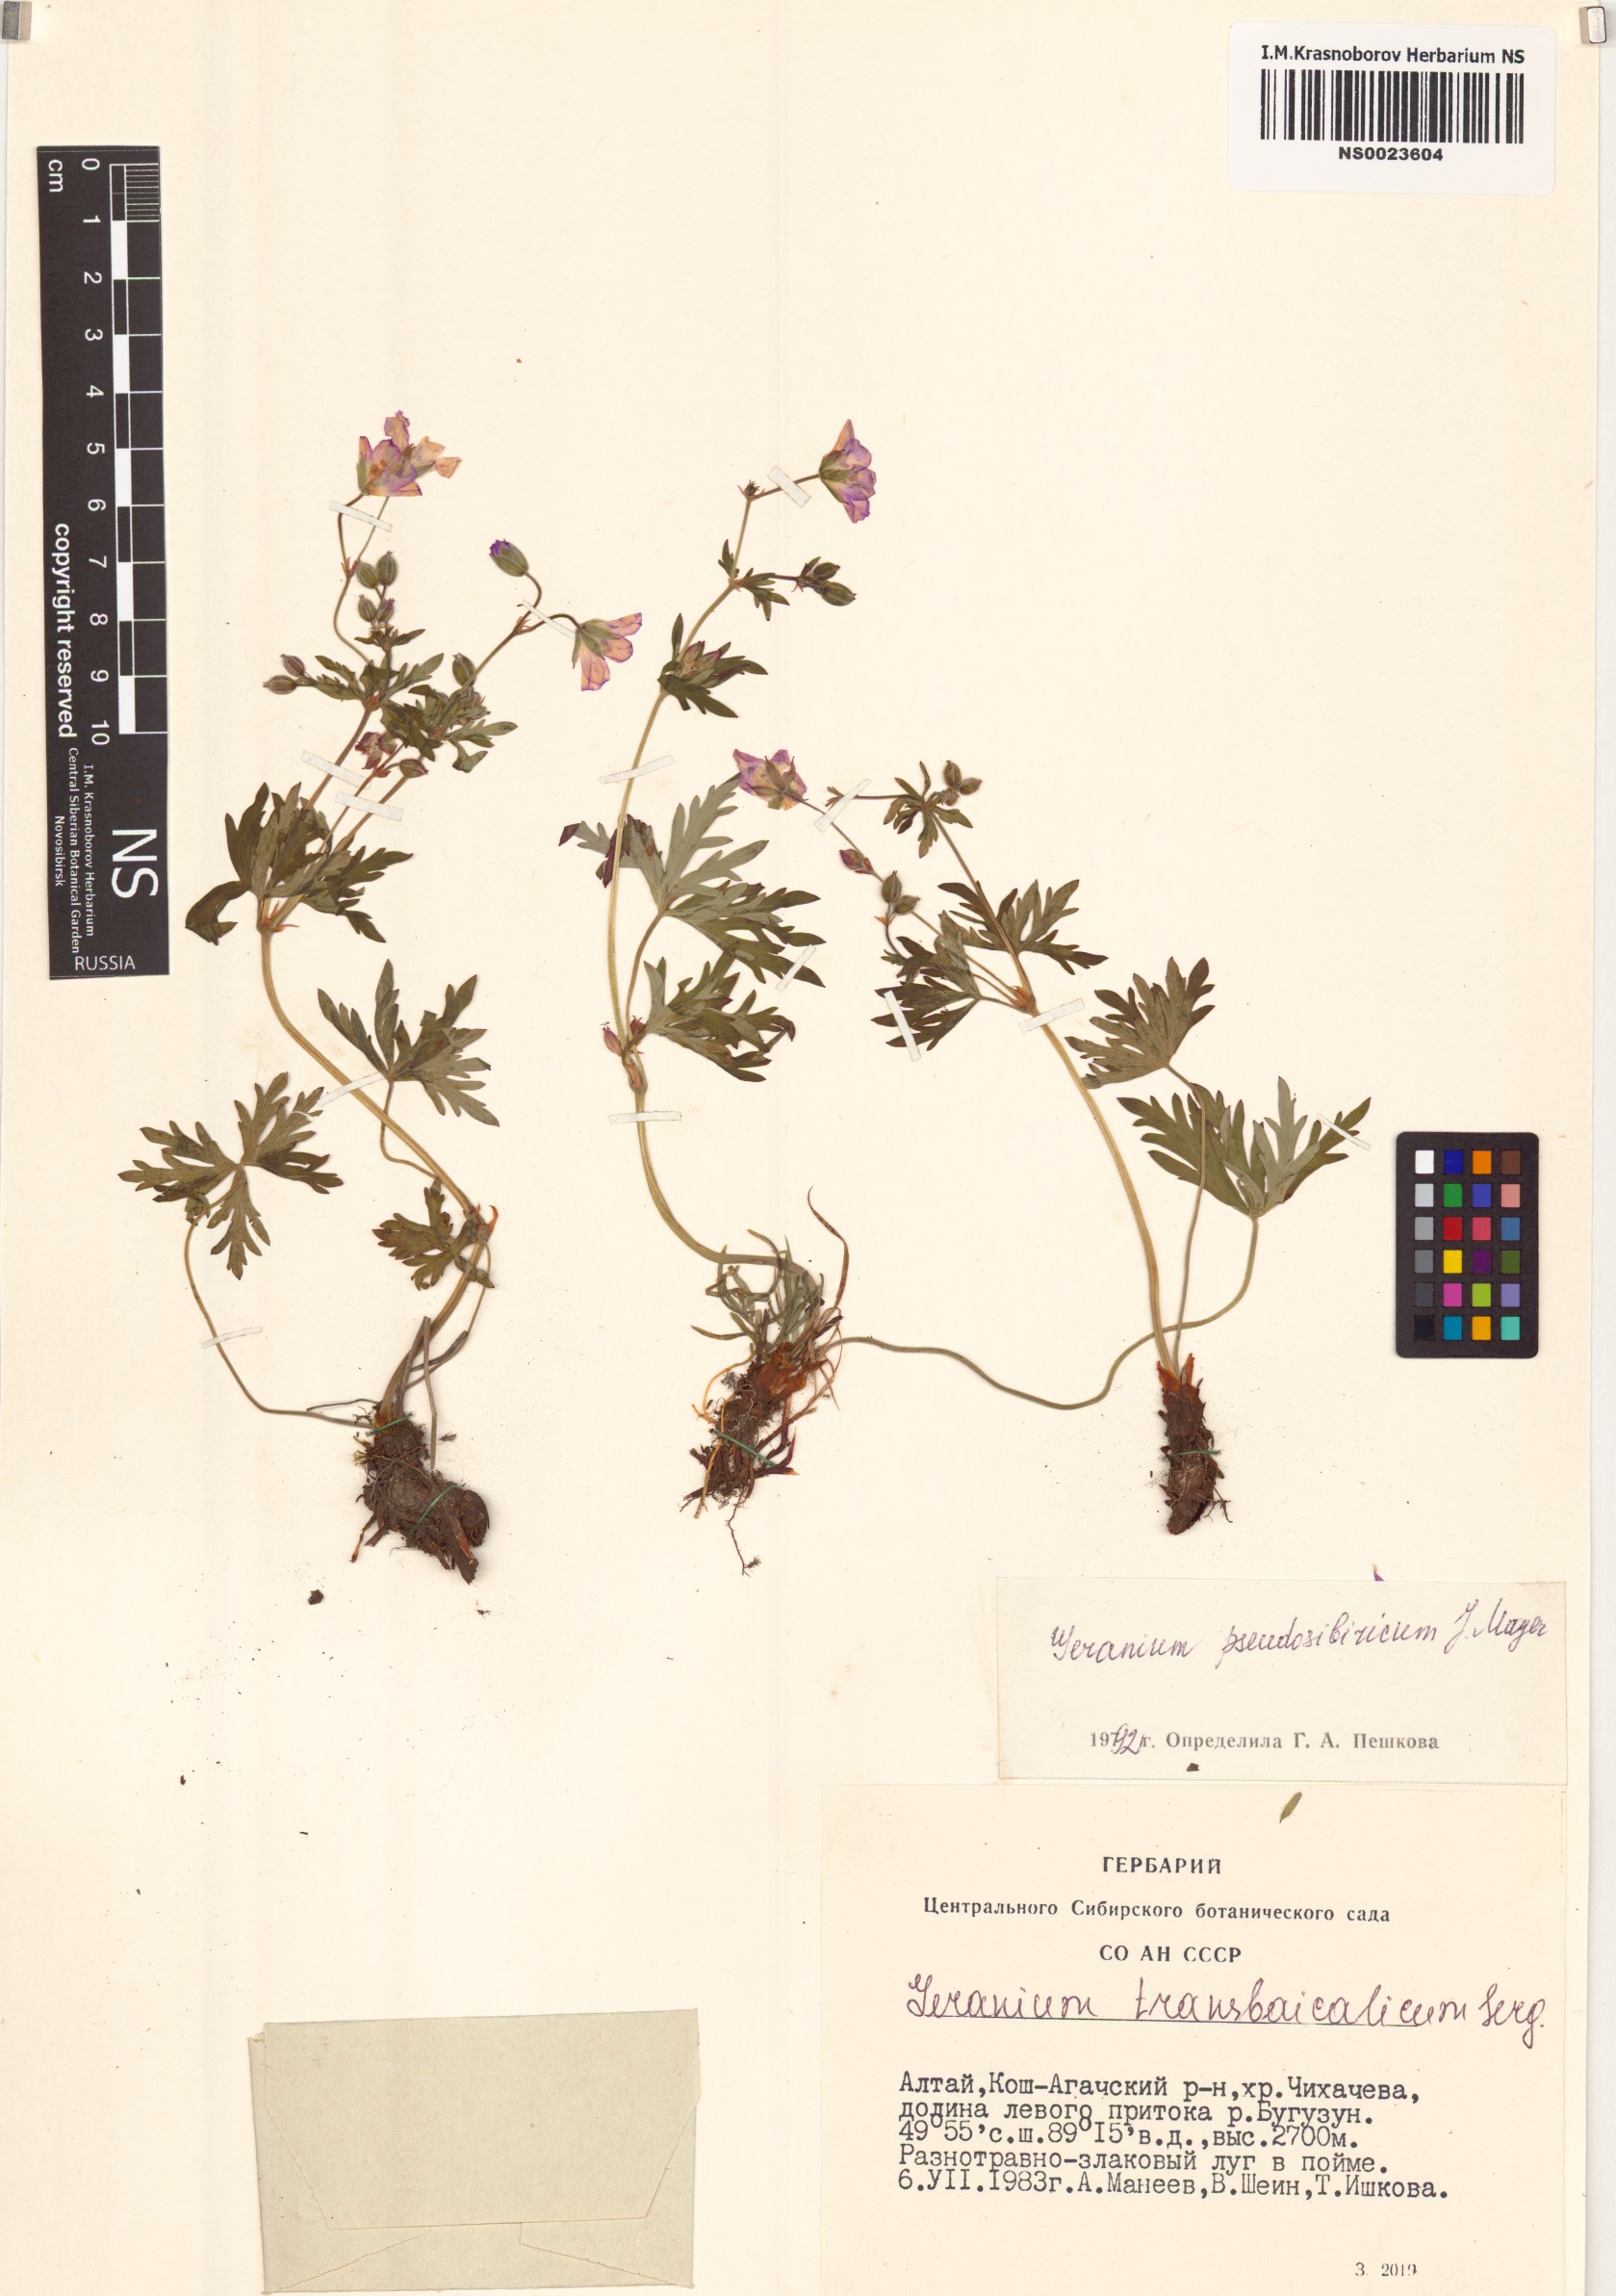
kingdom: Plantae
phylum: Tracheophyta
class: Magnoliopsida
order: Geraniales
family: Geraniaceae
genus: Geranium
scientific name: Geranium pseudosibiricum
